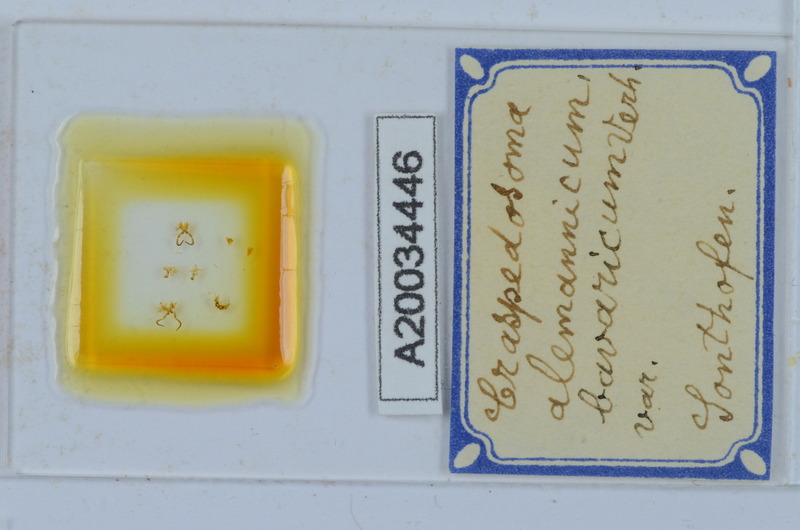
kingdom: Animalia
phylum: Arthropoda
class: Diplopoda
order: Chordeumatida
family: Craspedosomatidae
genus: Craspedosoma
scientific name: Craspedosoma rawlinsii
